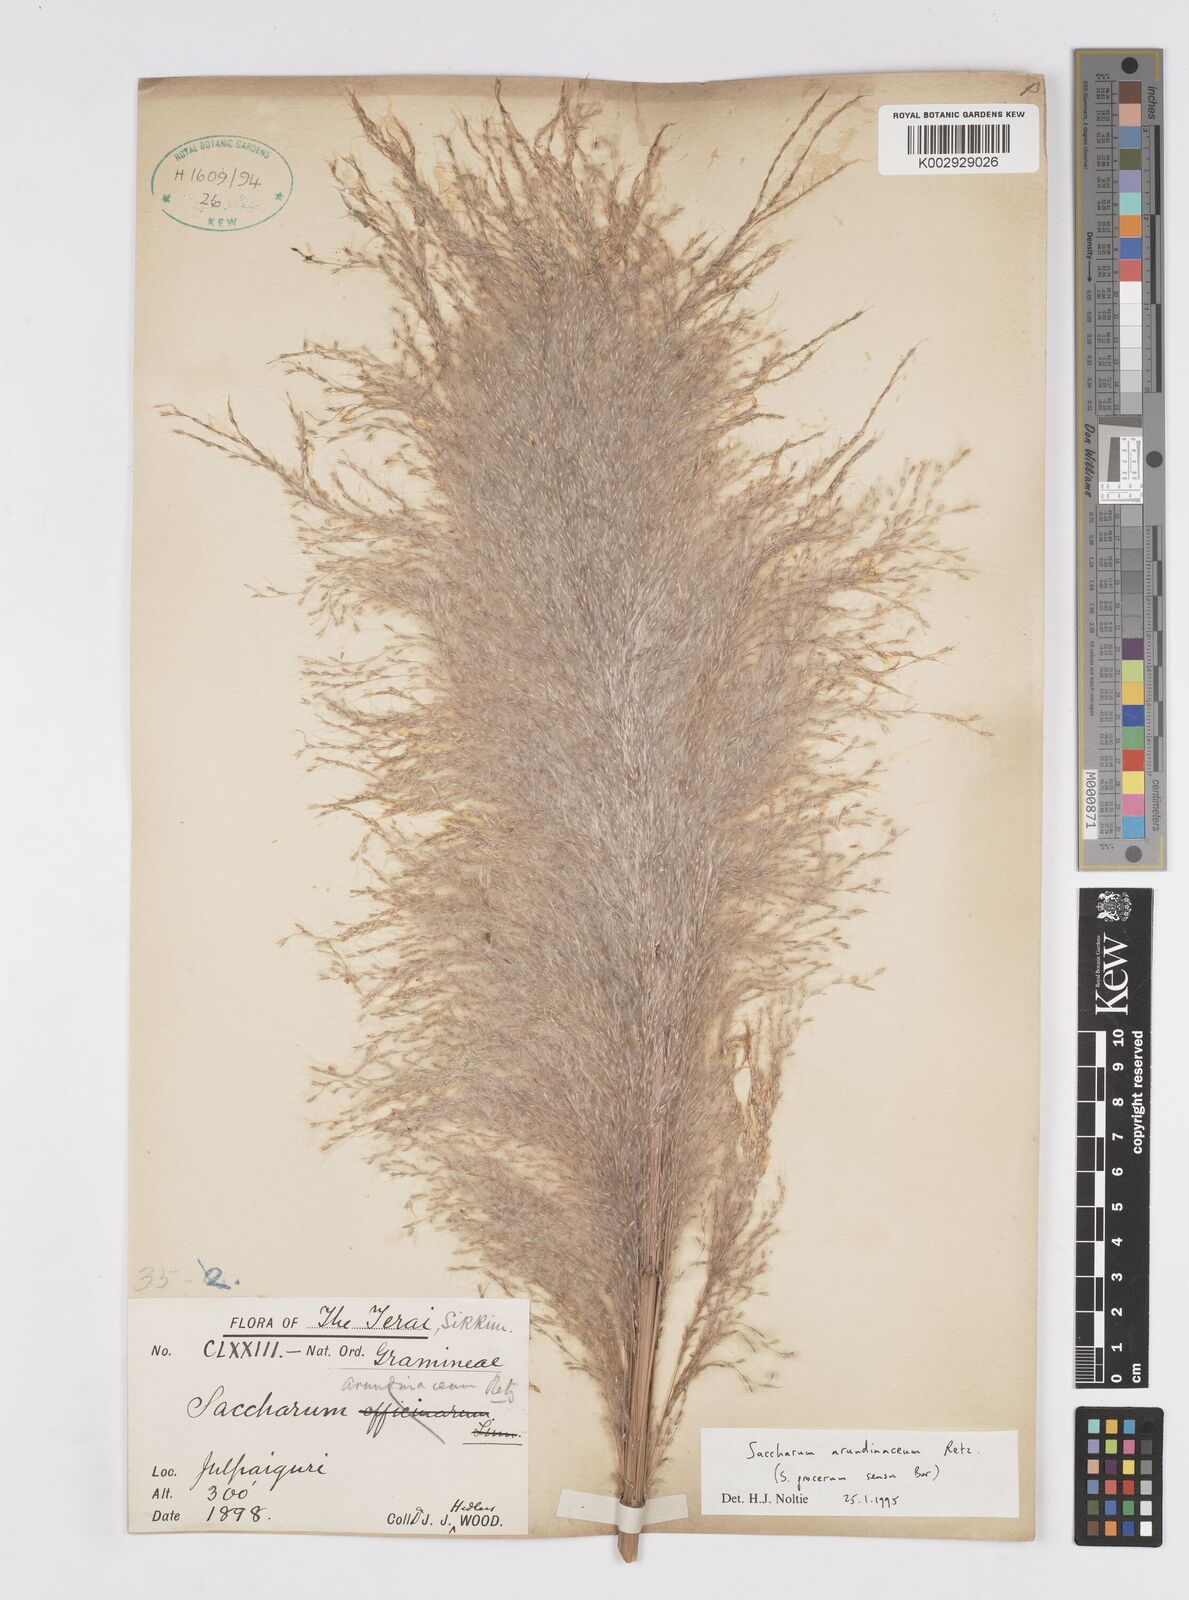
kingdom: Plantae
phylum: Tracheophyta
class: Liliopsida
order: Poales
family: Poaceae
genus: Tripidium
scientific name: Tripidium arundinaceum
